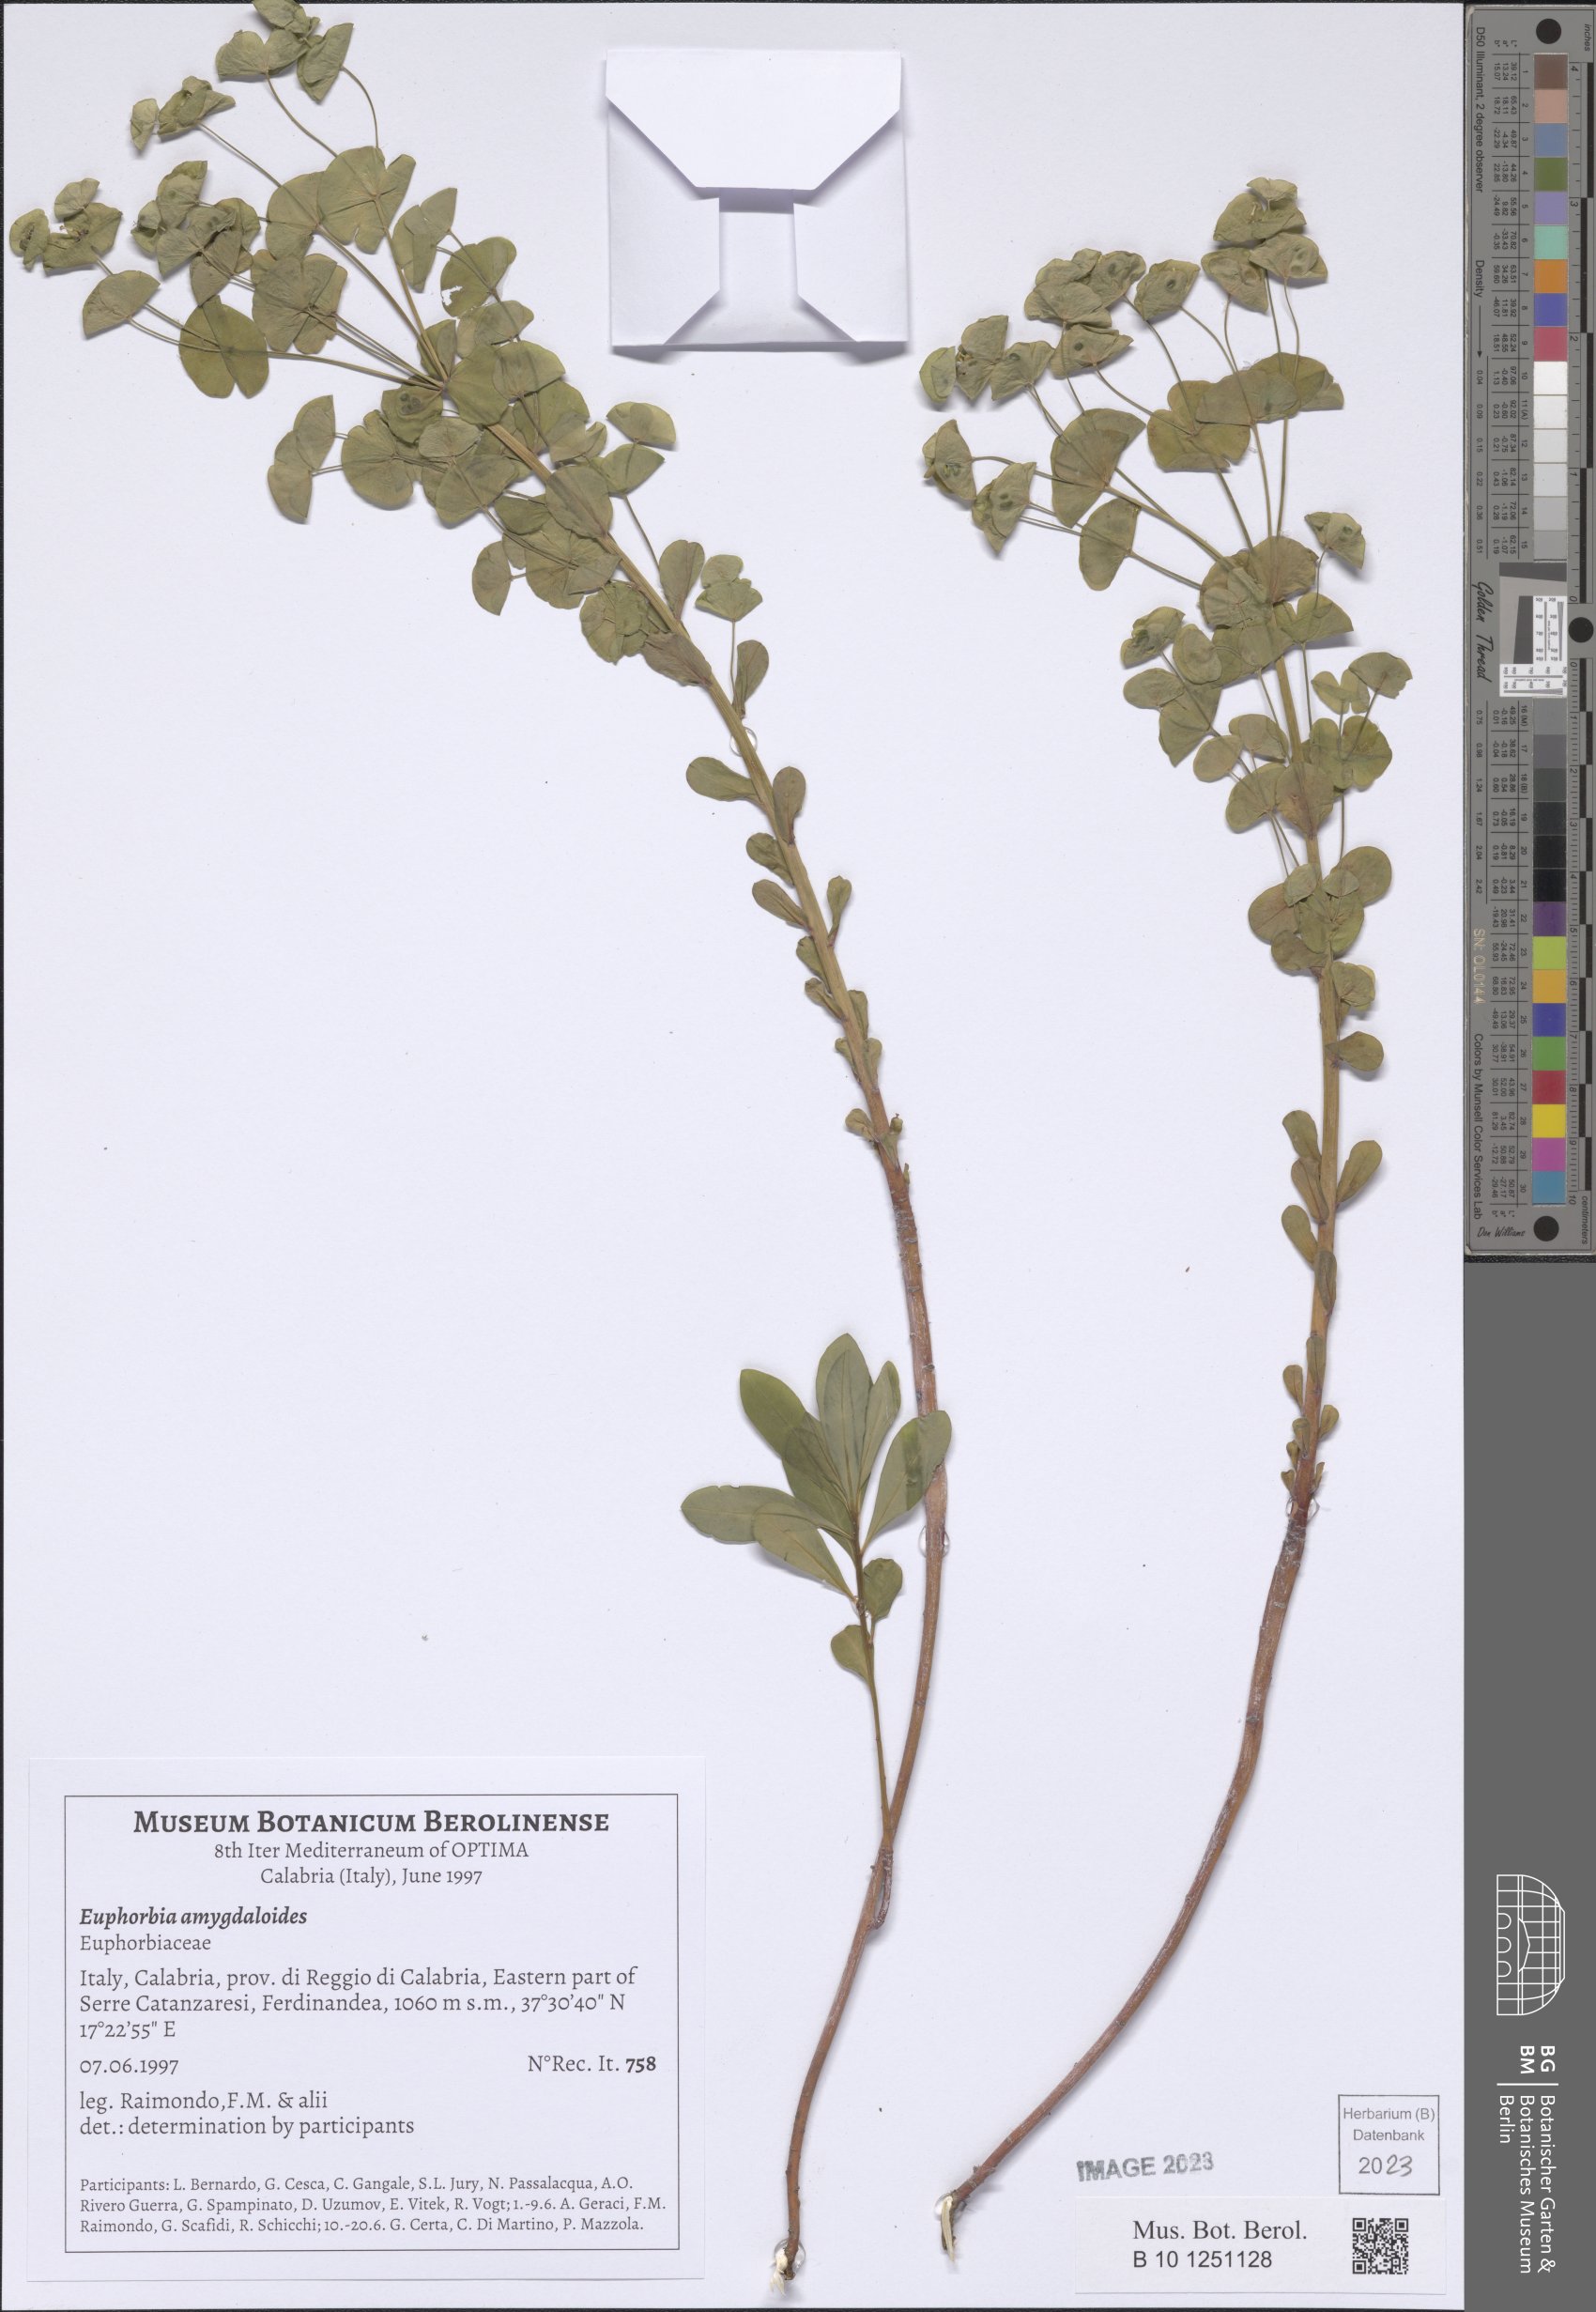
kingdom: Plantae
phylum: Tracheophyta
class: Magnoliopsida
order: Malpighiales
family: Euphorbiaceae
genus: Euphorbia
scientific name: Euphorbia amygdaloides
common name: Wood spurge
